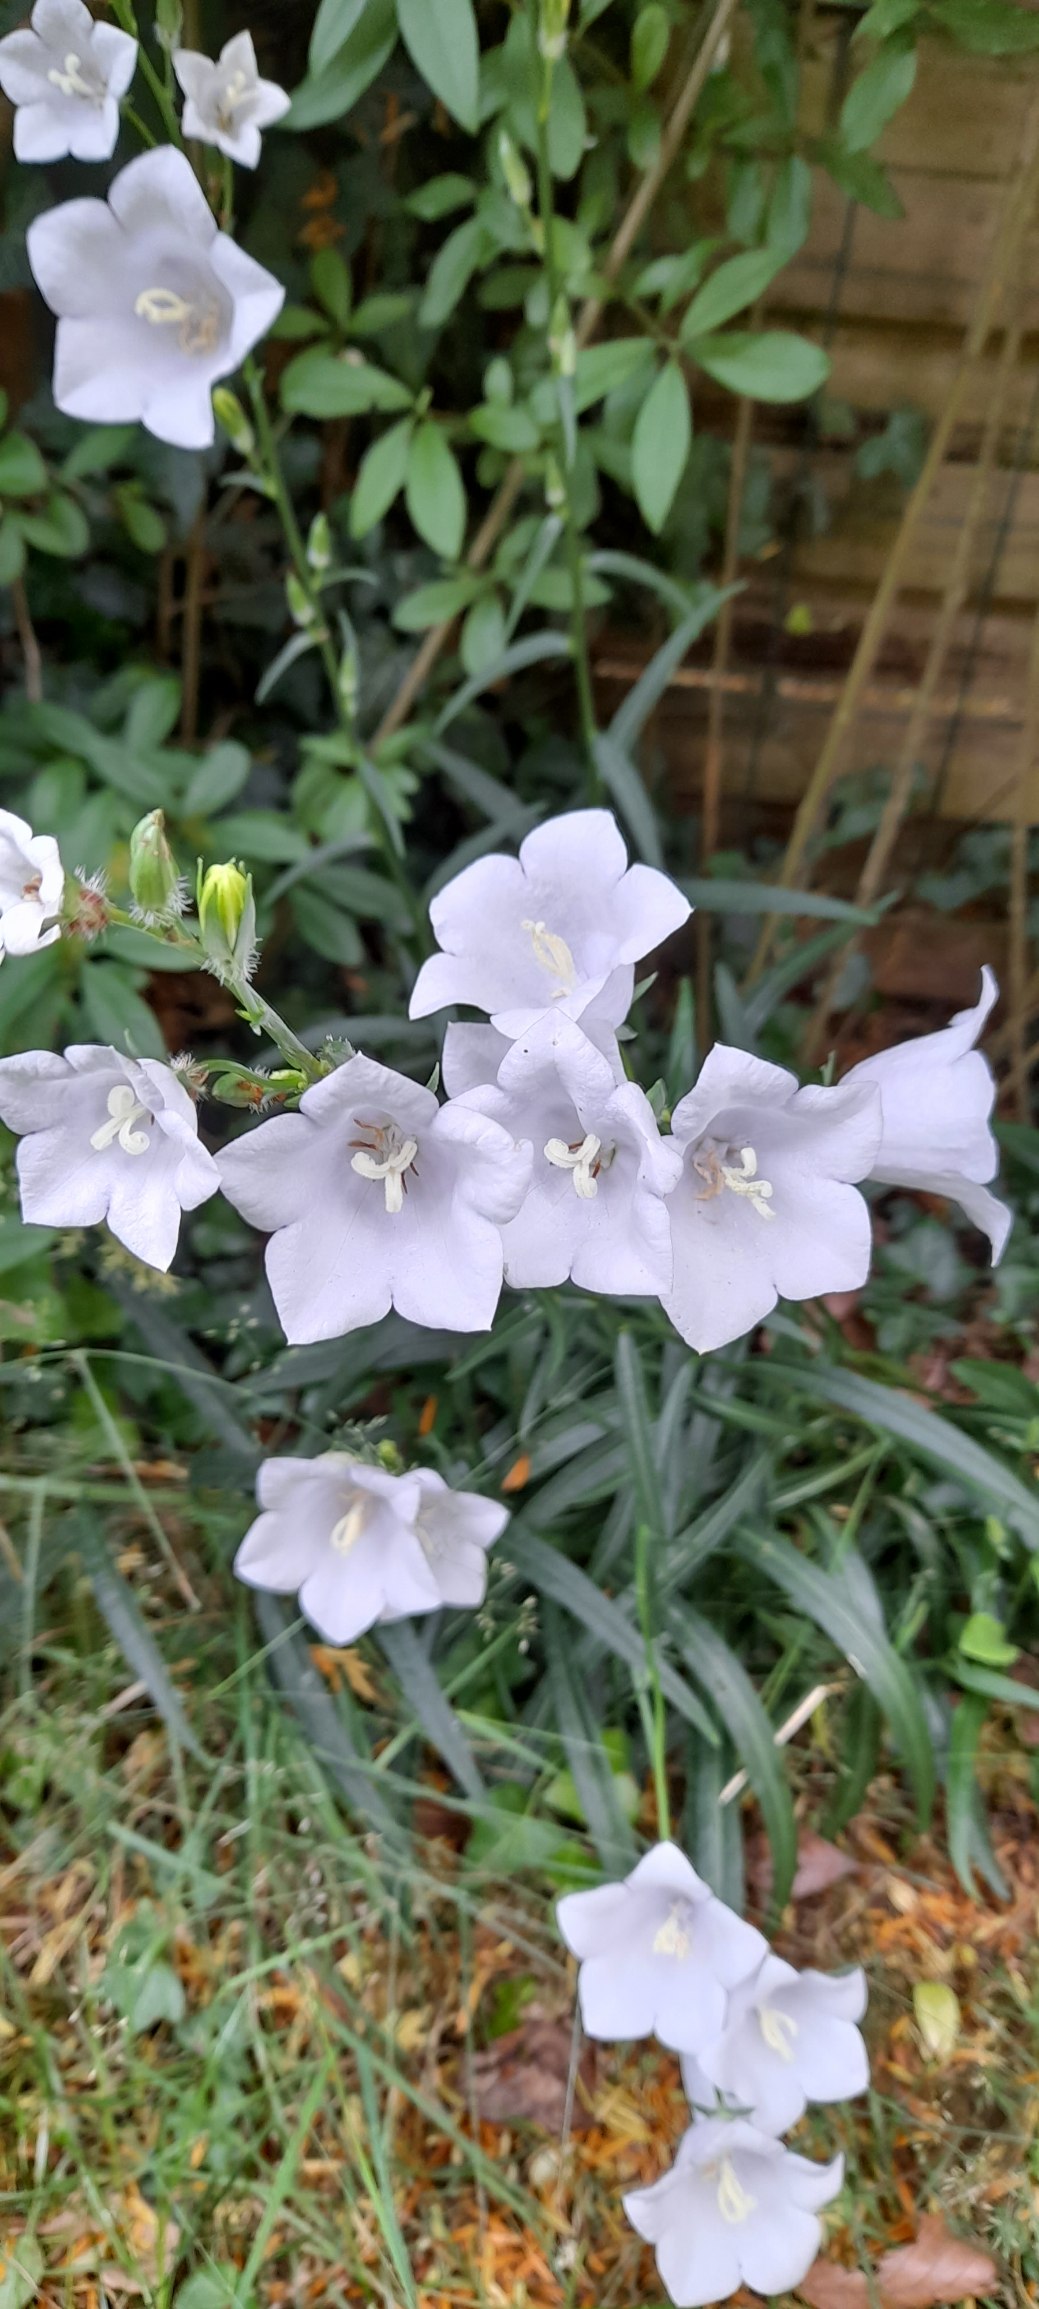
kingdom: Plantae
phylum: Tracheophyta
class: Magnoliopsida
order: Asterales
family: Campanulaceae
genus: Campanula
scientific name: Campanula persicifolia
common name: Smalbladet klokke
